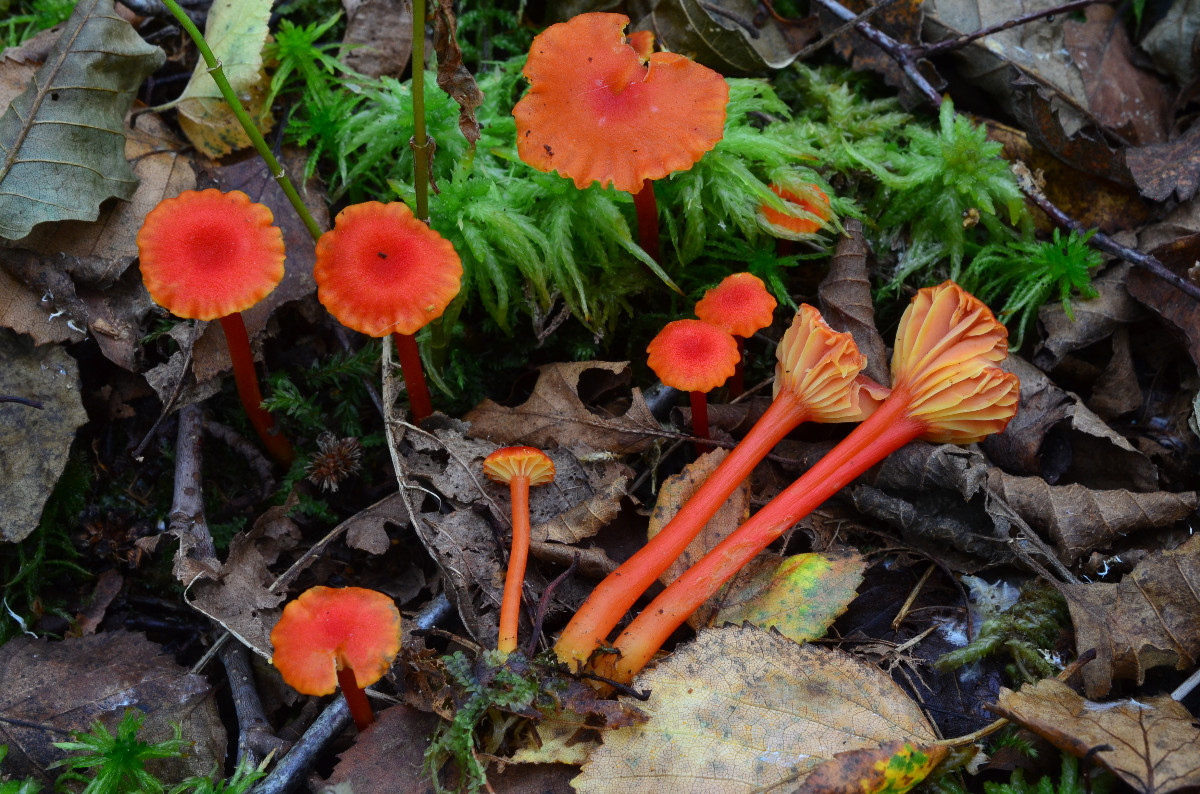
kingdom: Fungi
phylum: Basidiomycota
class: Agaricomycetes
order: Agaricales
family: Hygrophoraceae
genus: Hygrocybe
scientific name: Hygrocybe cantharellus
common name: kantarel-vokshat
